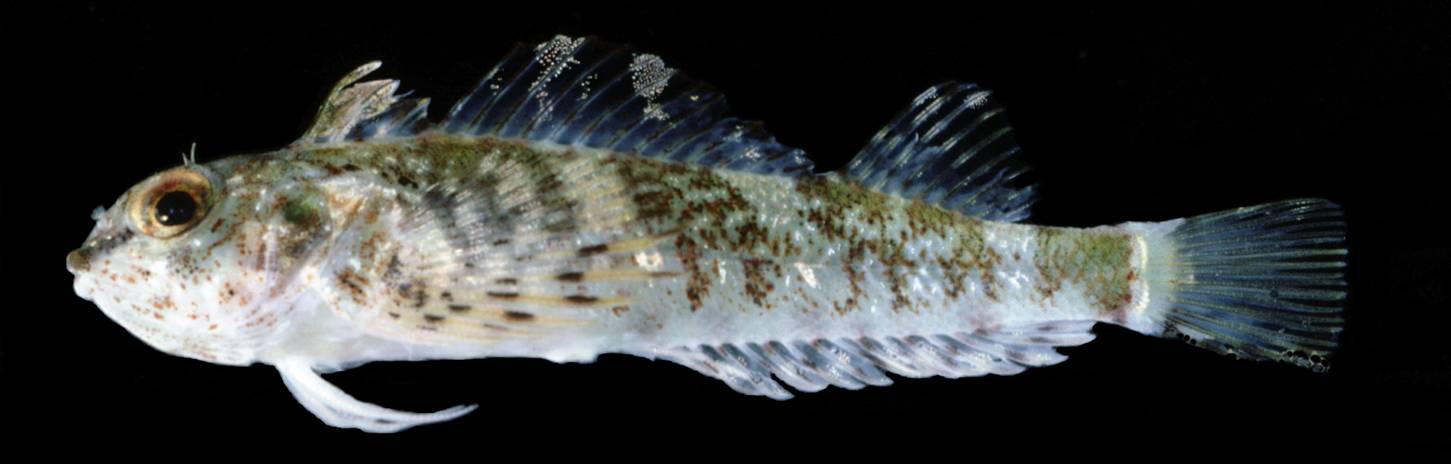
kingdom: Animalia
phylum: Chordata
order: Perciformes
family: Tripterygiidae
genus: Helcogramma
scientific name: Helcogramma ellioti
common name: Red-eye threefin
